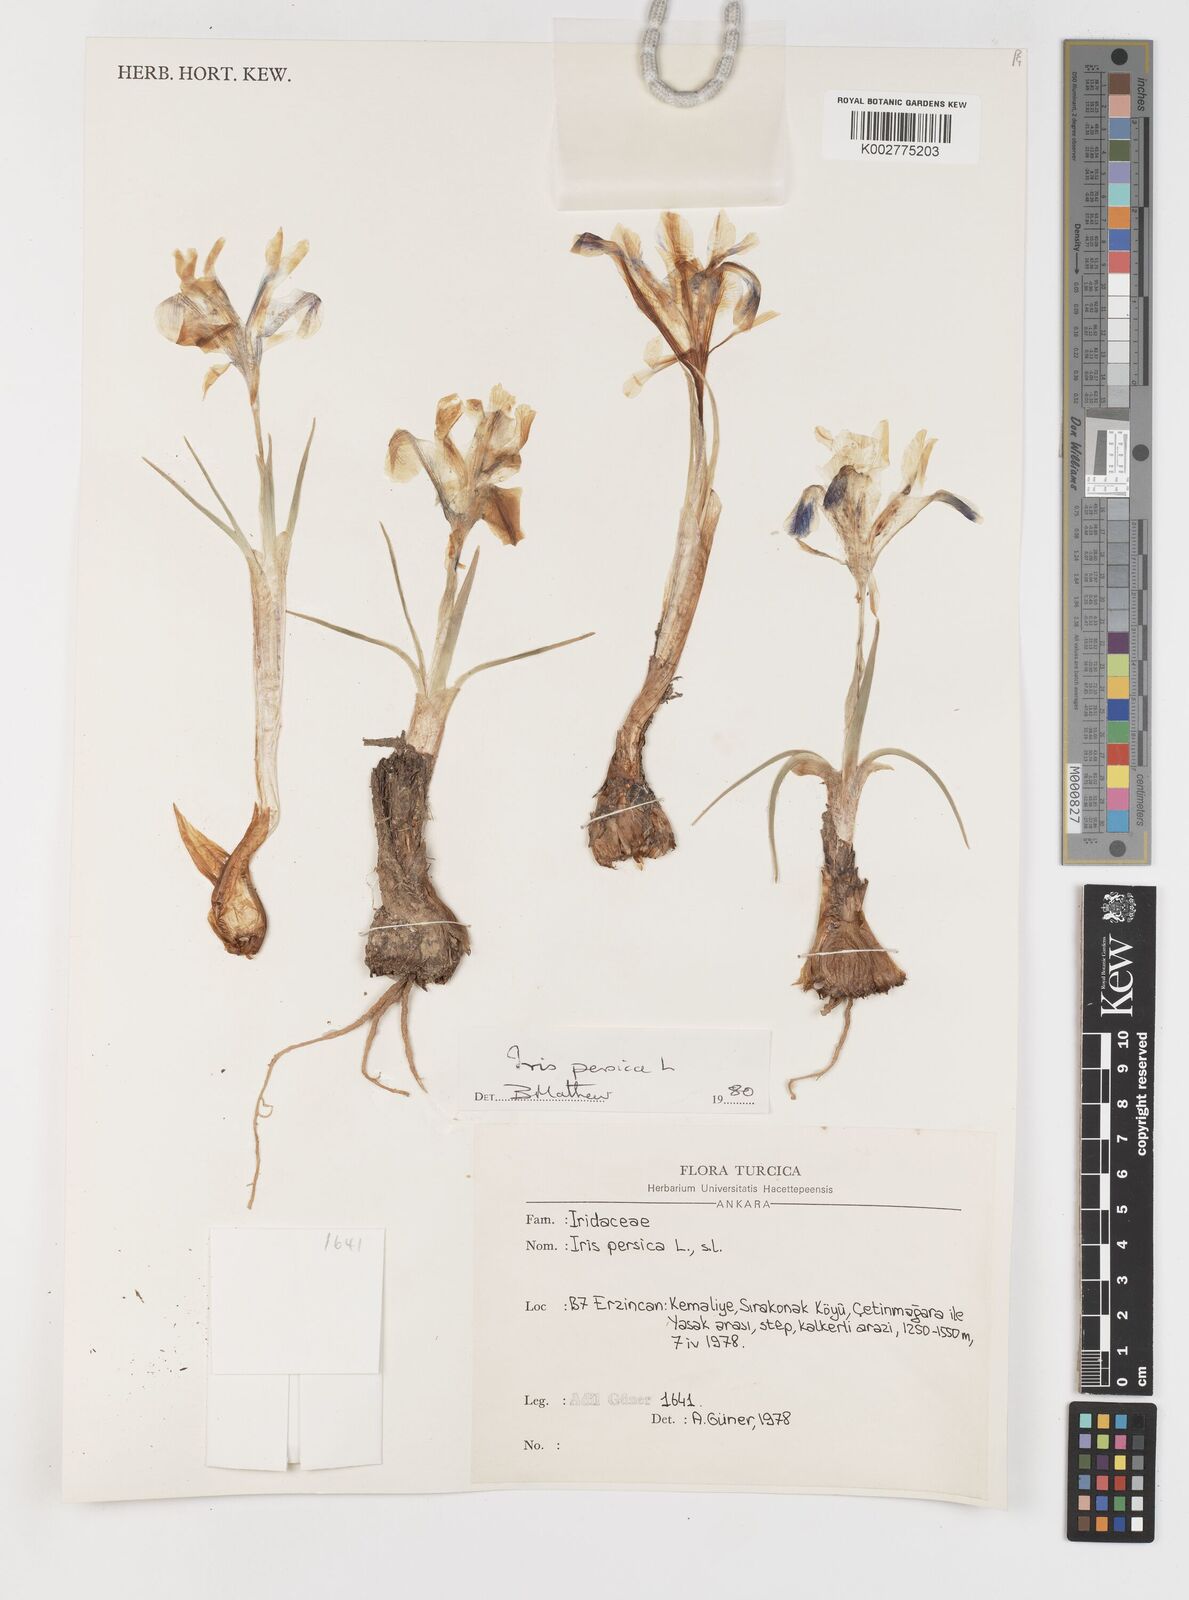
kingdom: Plantae
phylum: Tracheophyta
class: Liliopsida
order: Asparagales
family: Iridaceae
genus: Iris
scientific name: Iris persica
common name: Persian iris
